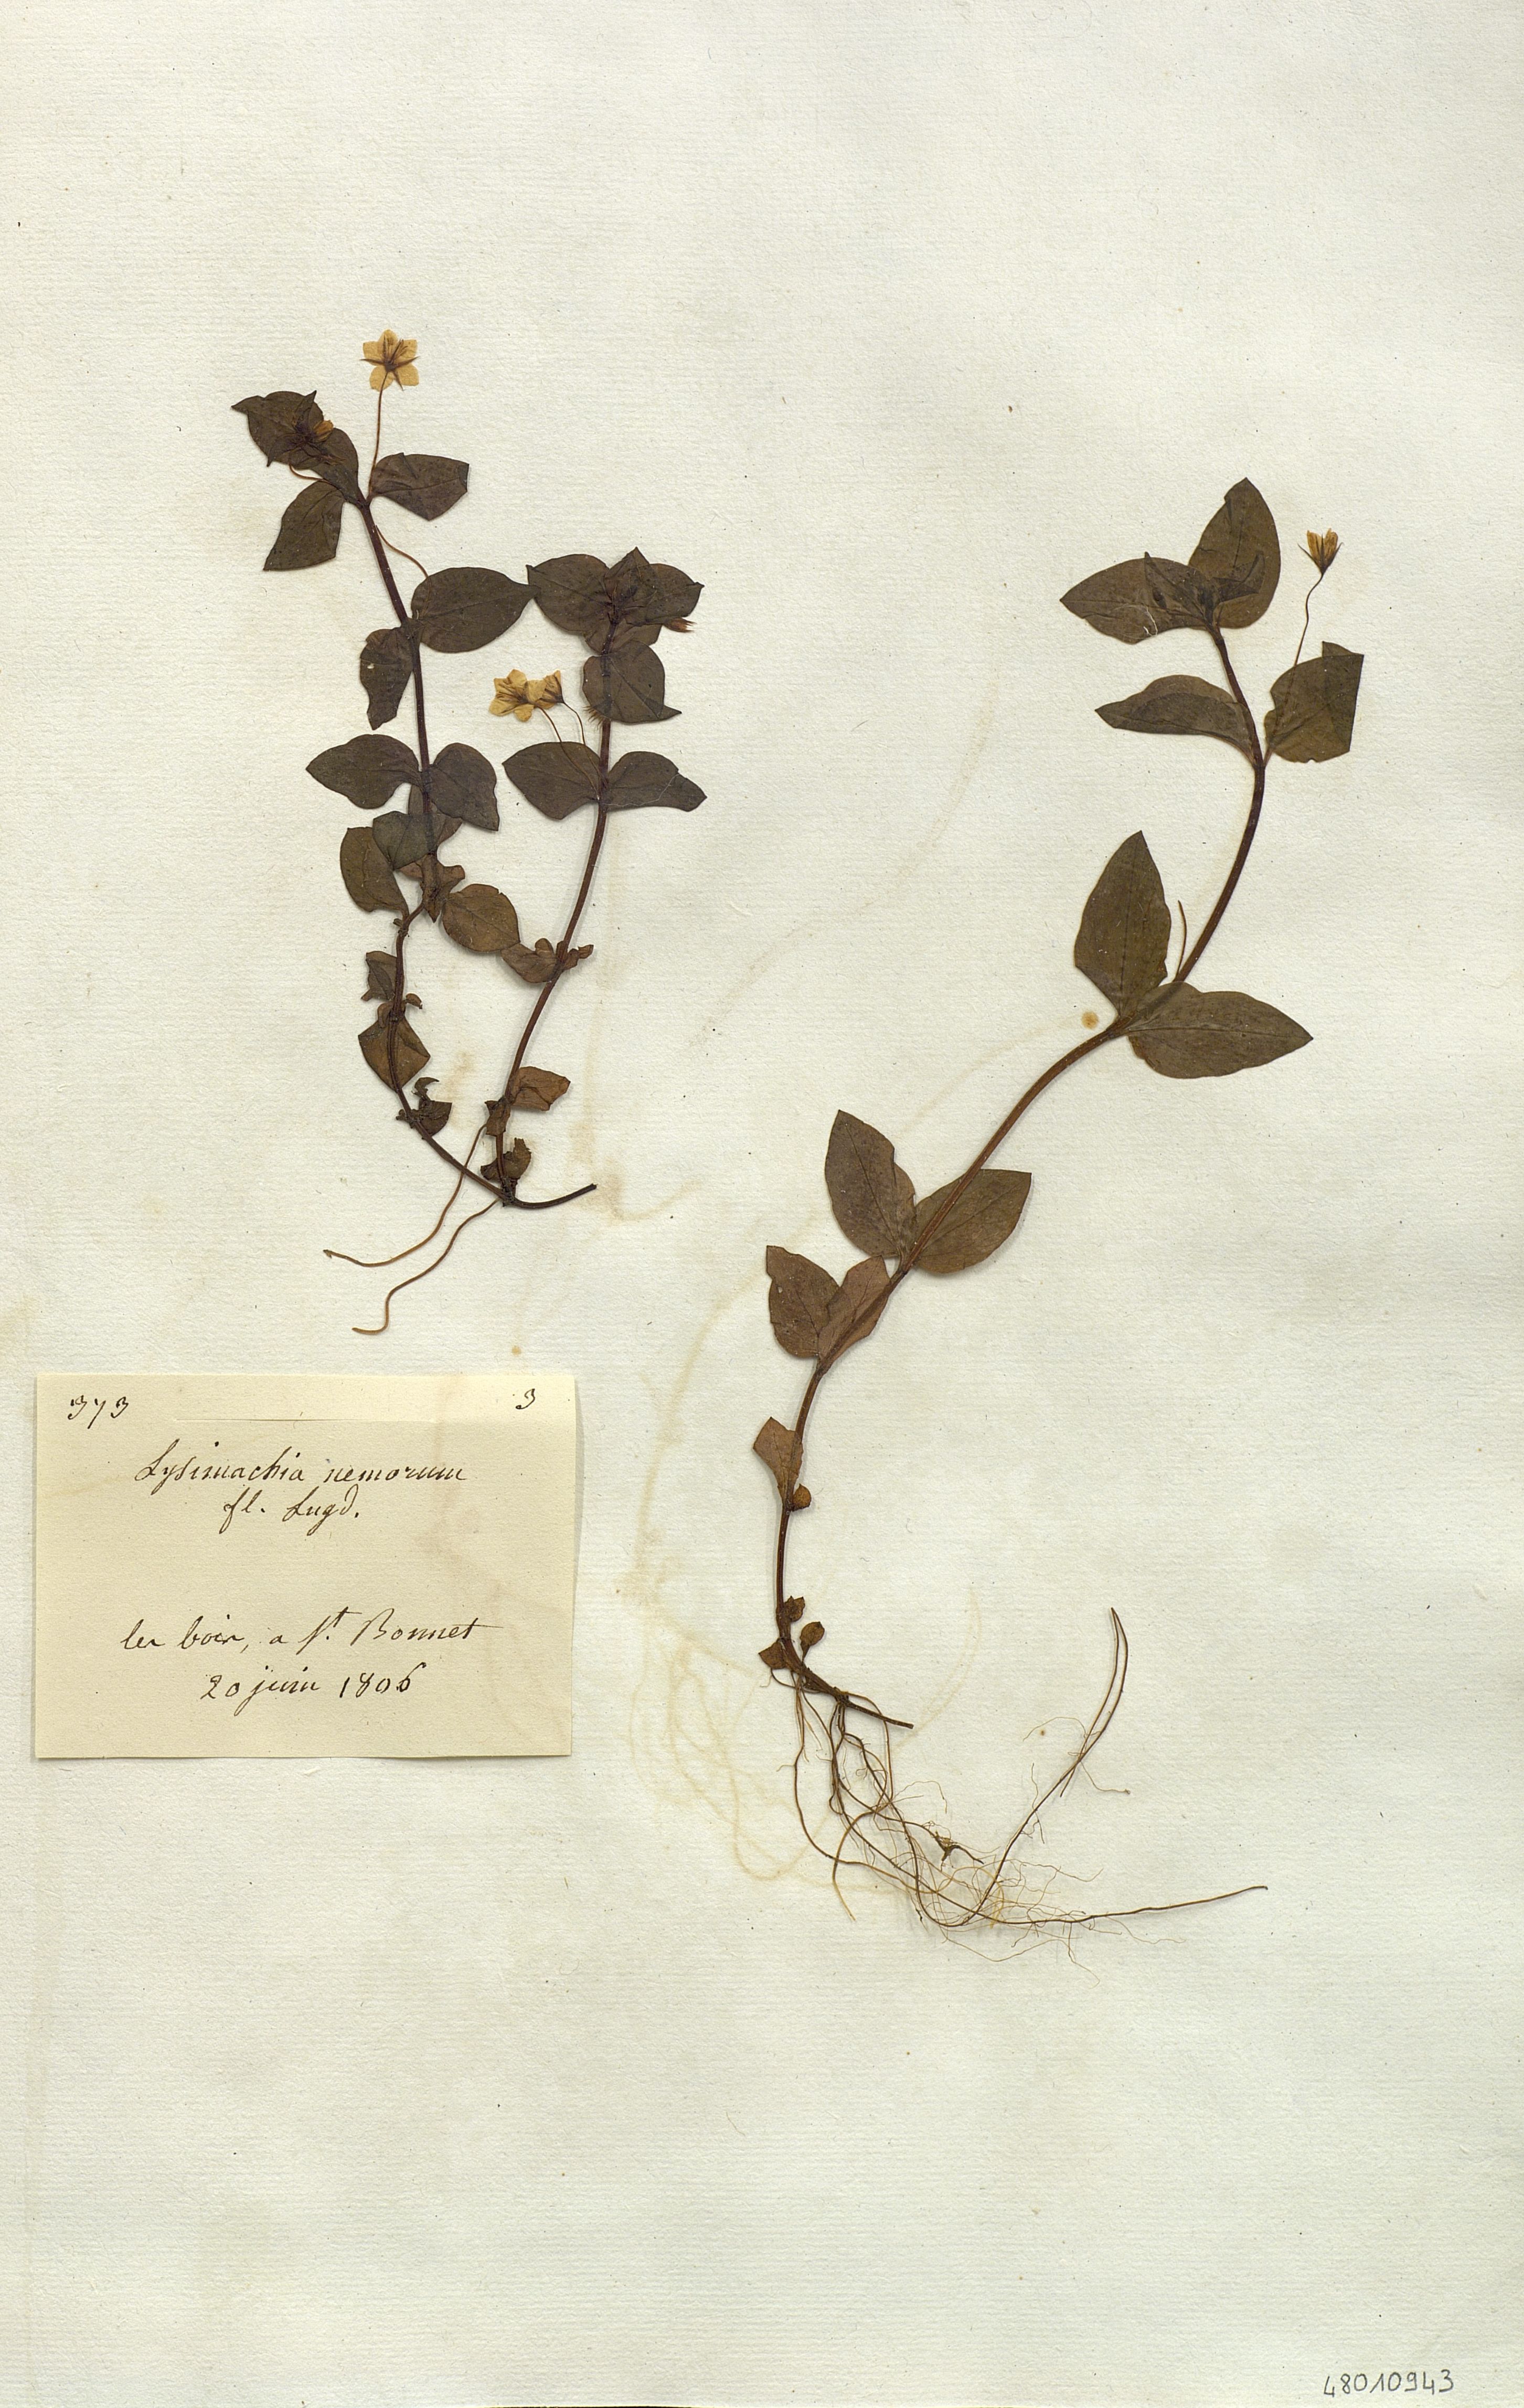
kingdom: Plantae
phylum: Tracheophyta
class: Magnoliopsida
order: Ericales
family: Primulaceae
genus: Lysimachia
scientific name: Lysimachia nemorum
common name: Yellow pimpernel
